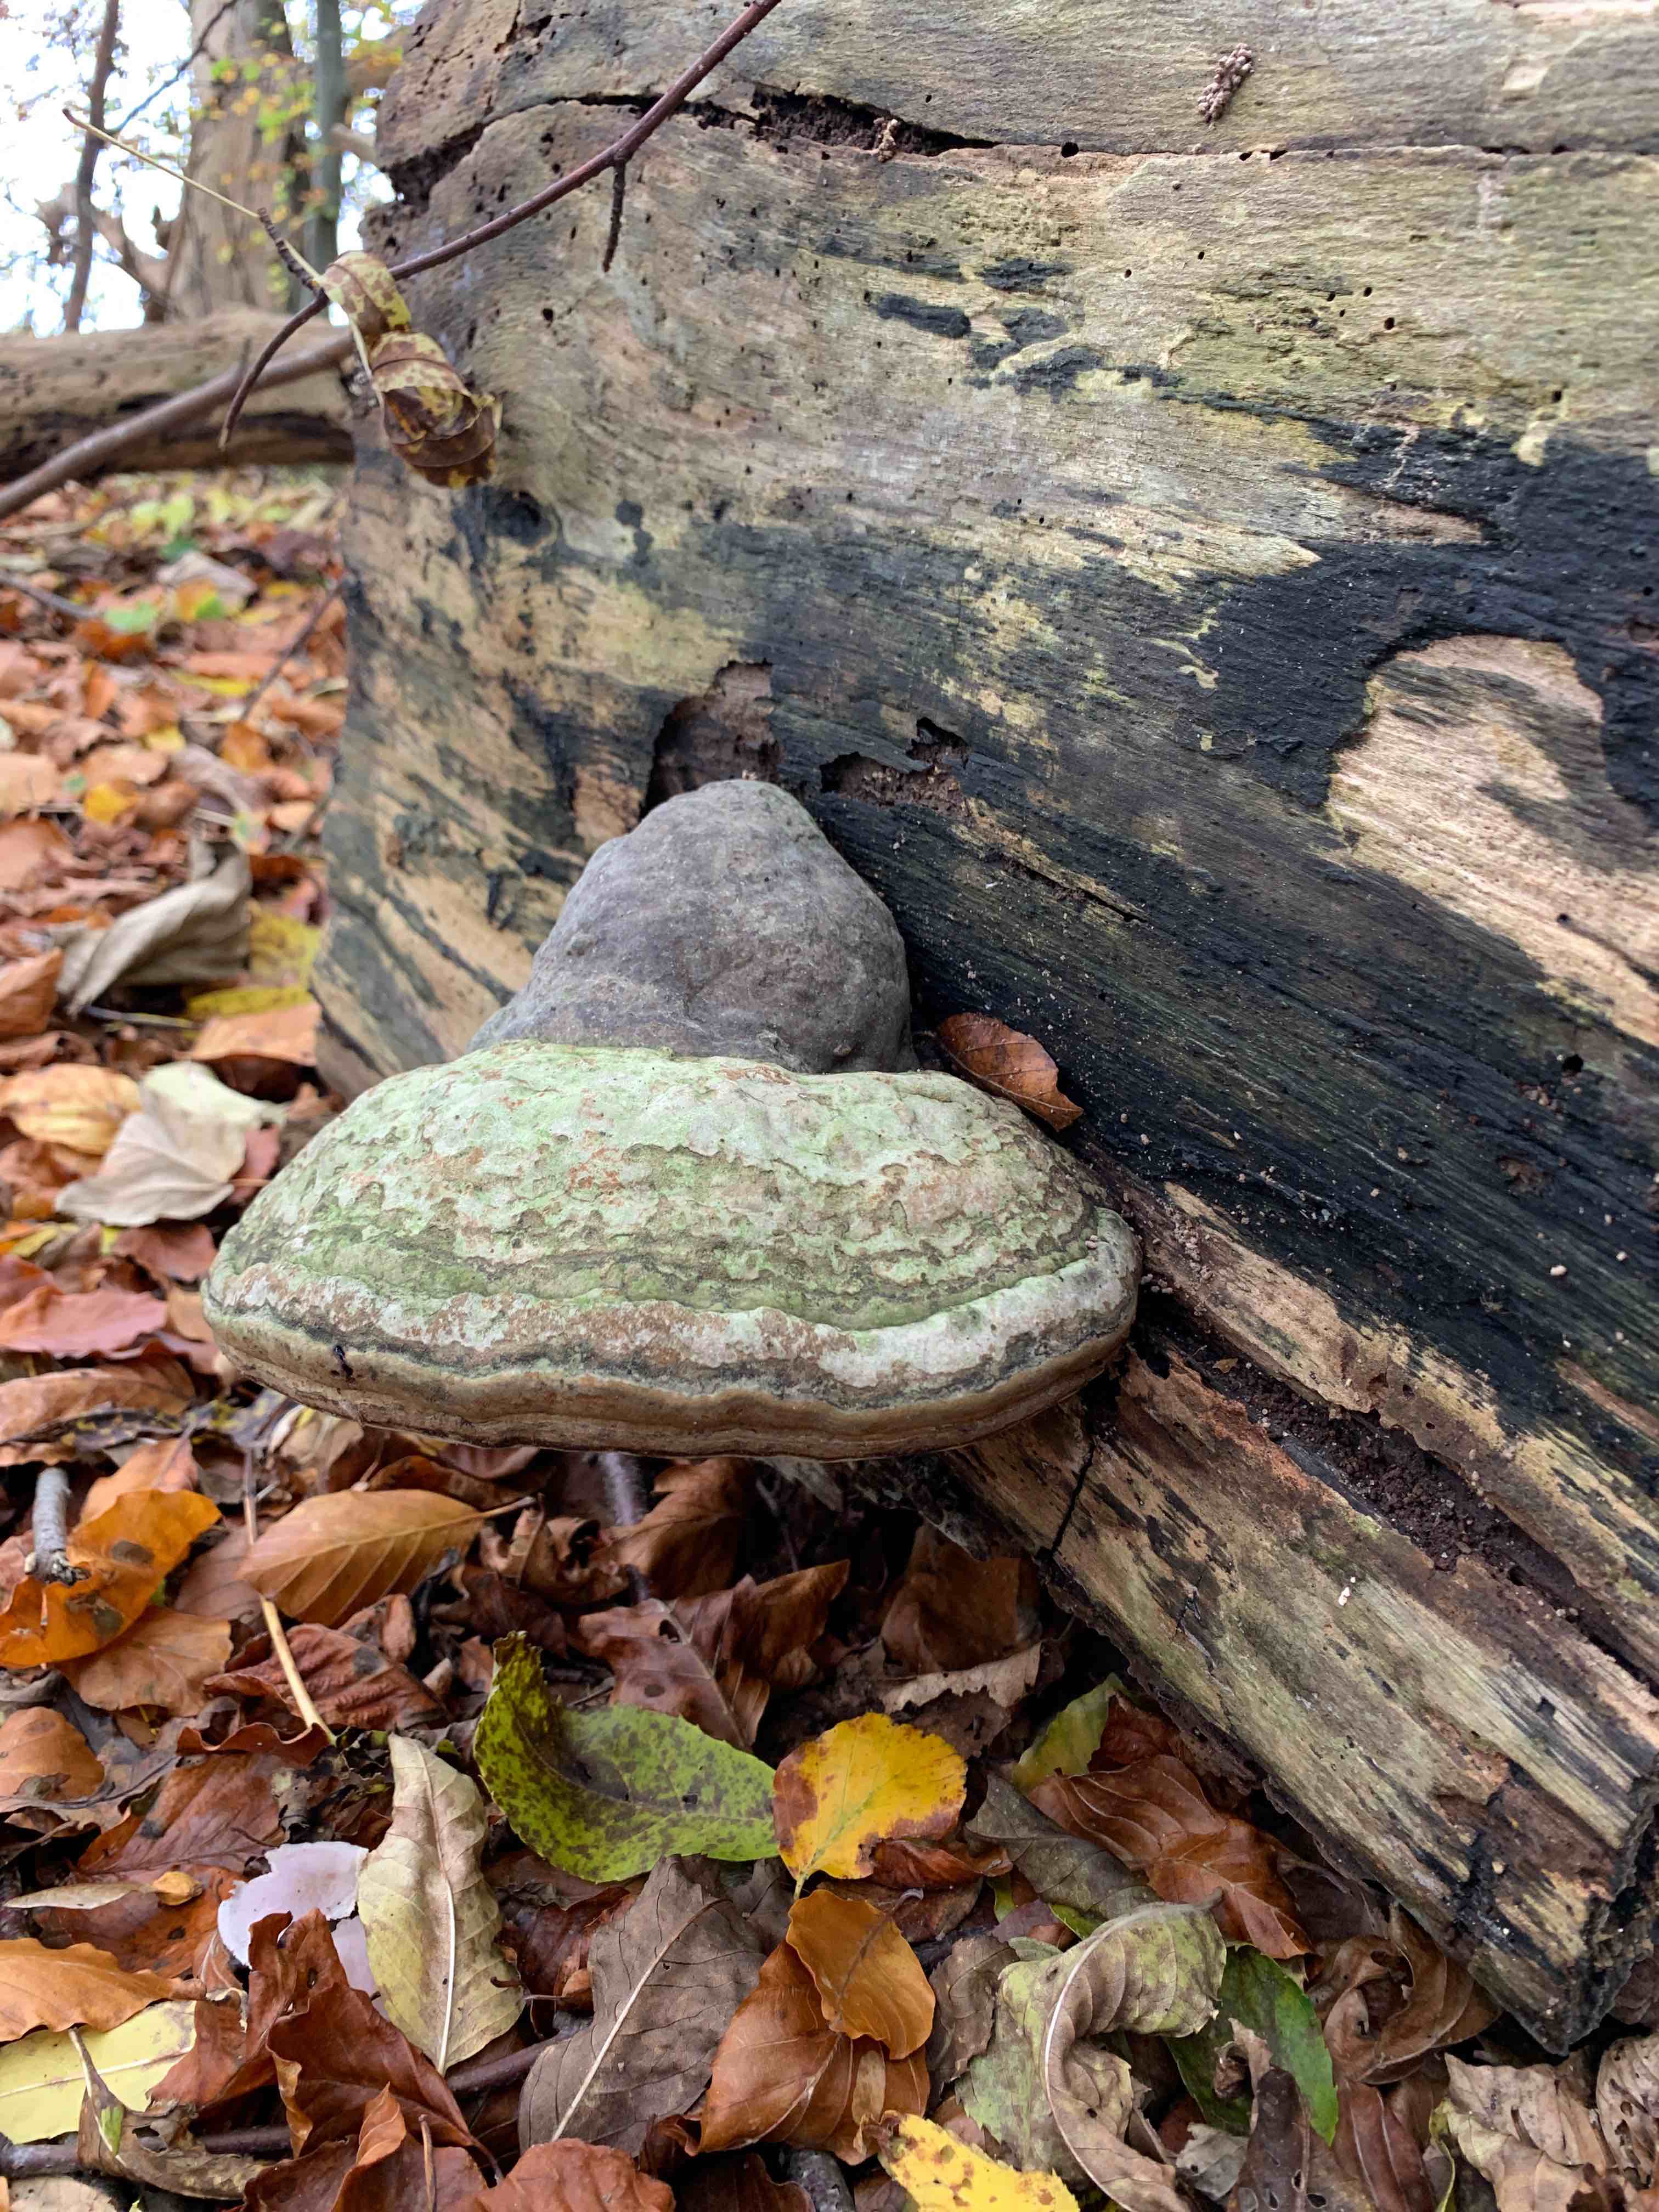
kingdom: Fungi
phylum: Basidiomycota
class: Agaricomycetes
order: Polyporales
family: Polyporaceae
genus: Fomes
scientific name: Fomes fomentarius
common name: tøndersvamp
